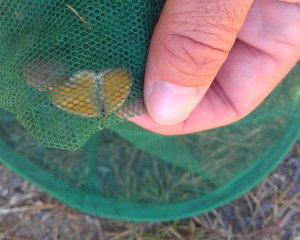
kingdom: Animalia
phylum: Arthropoda
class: Insecta
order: Lepidoptera
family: Nymphalidae
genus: Coenonympha
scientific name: Coenonympha tullia
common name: Large Heath
